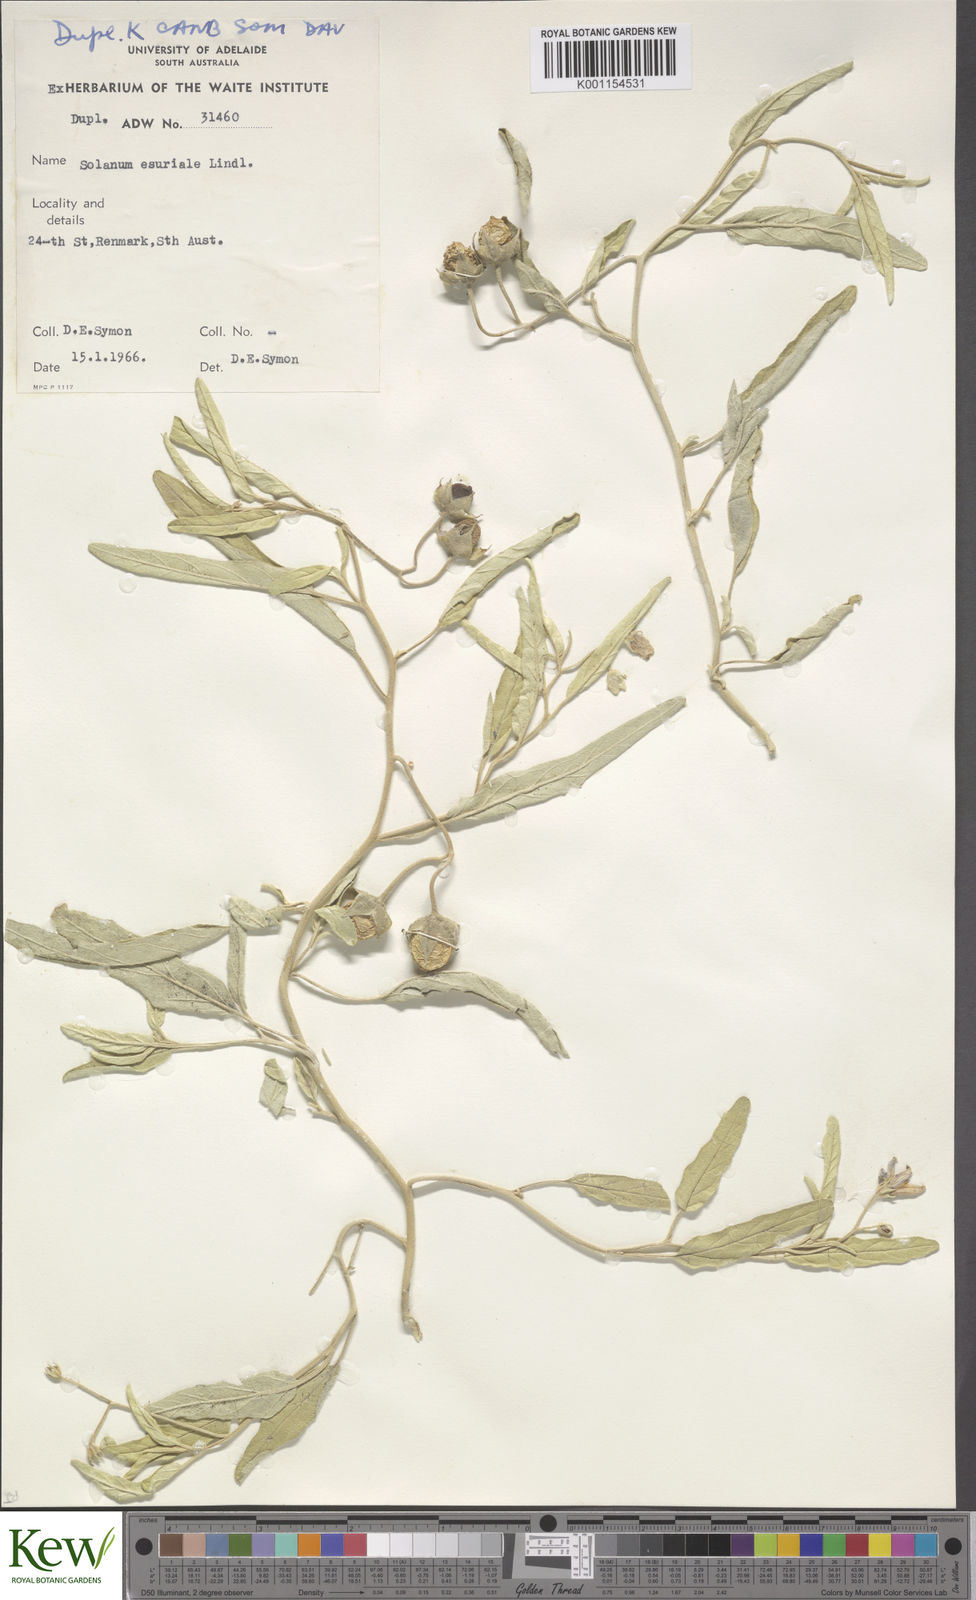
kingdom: Plantae
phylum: Tracheophyta
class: Magnoliopsida
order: Solanales
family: Solanaceae
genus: Solanum
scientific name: Solanum esuriale
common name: Wild tomato
